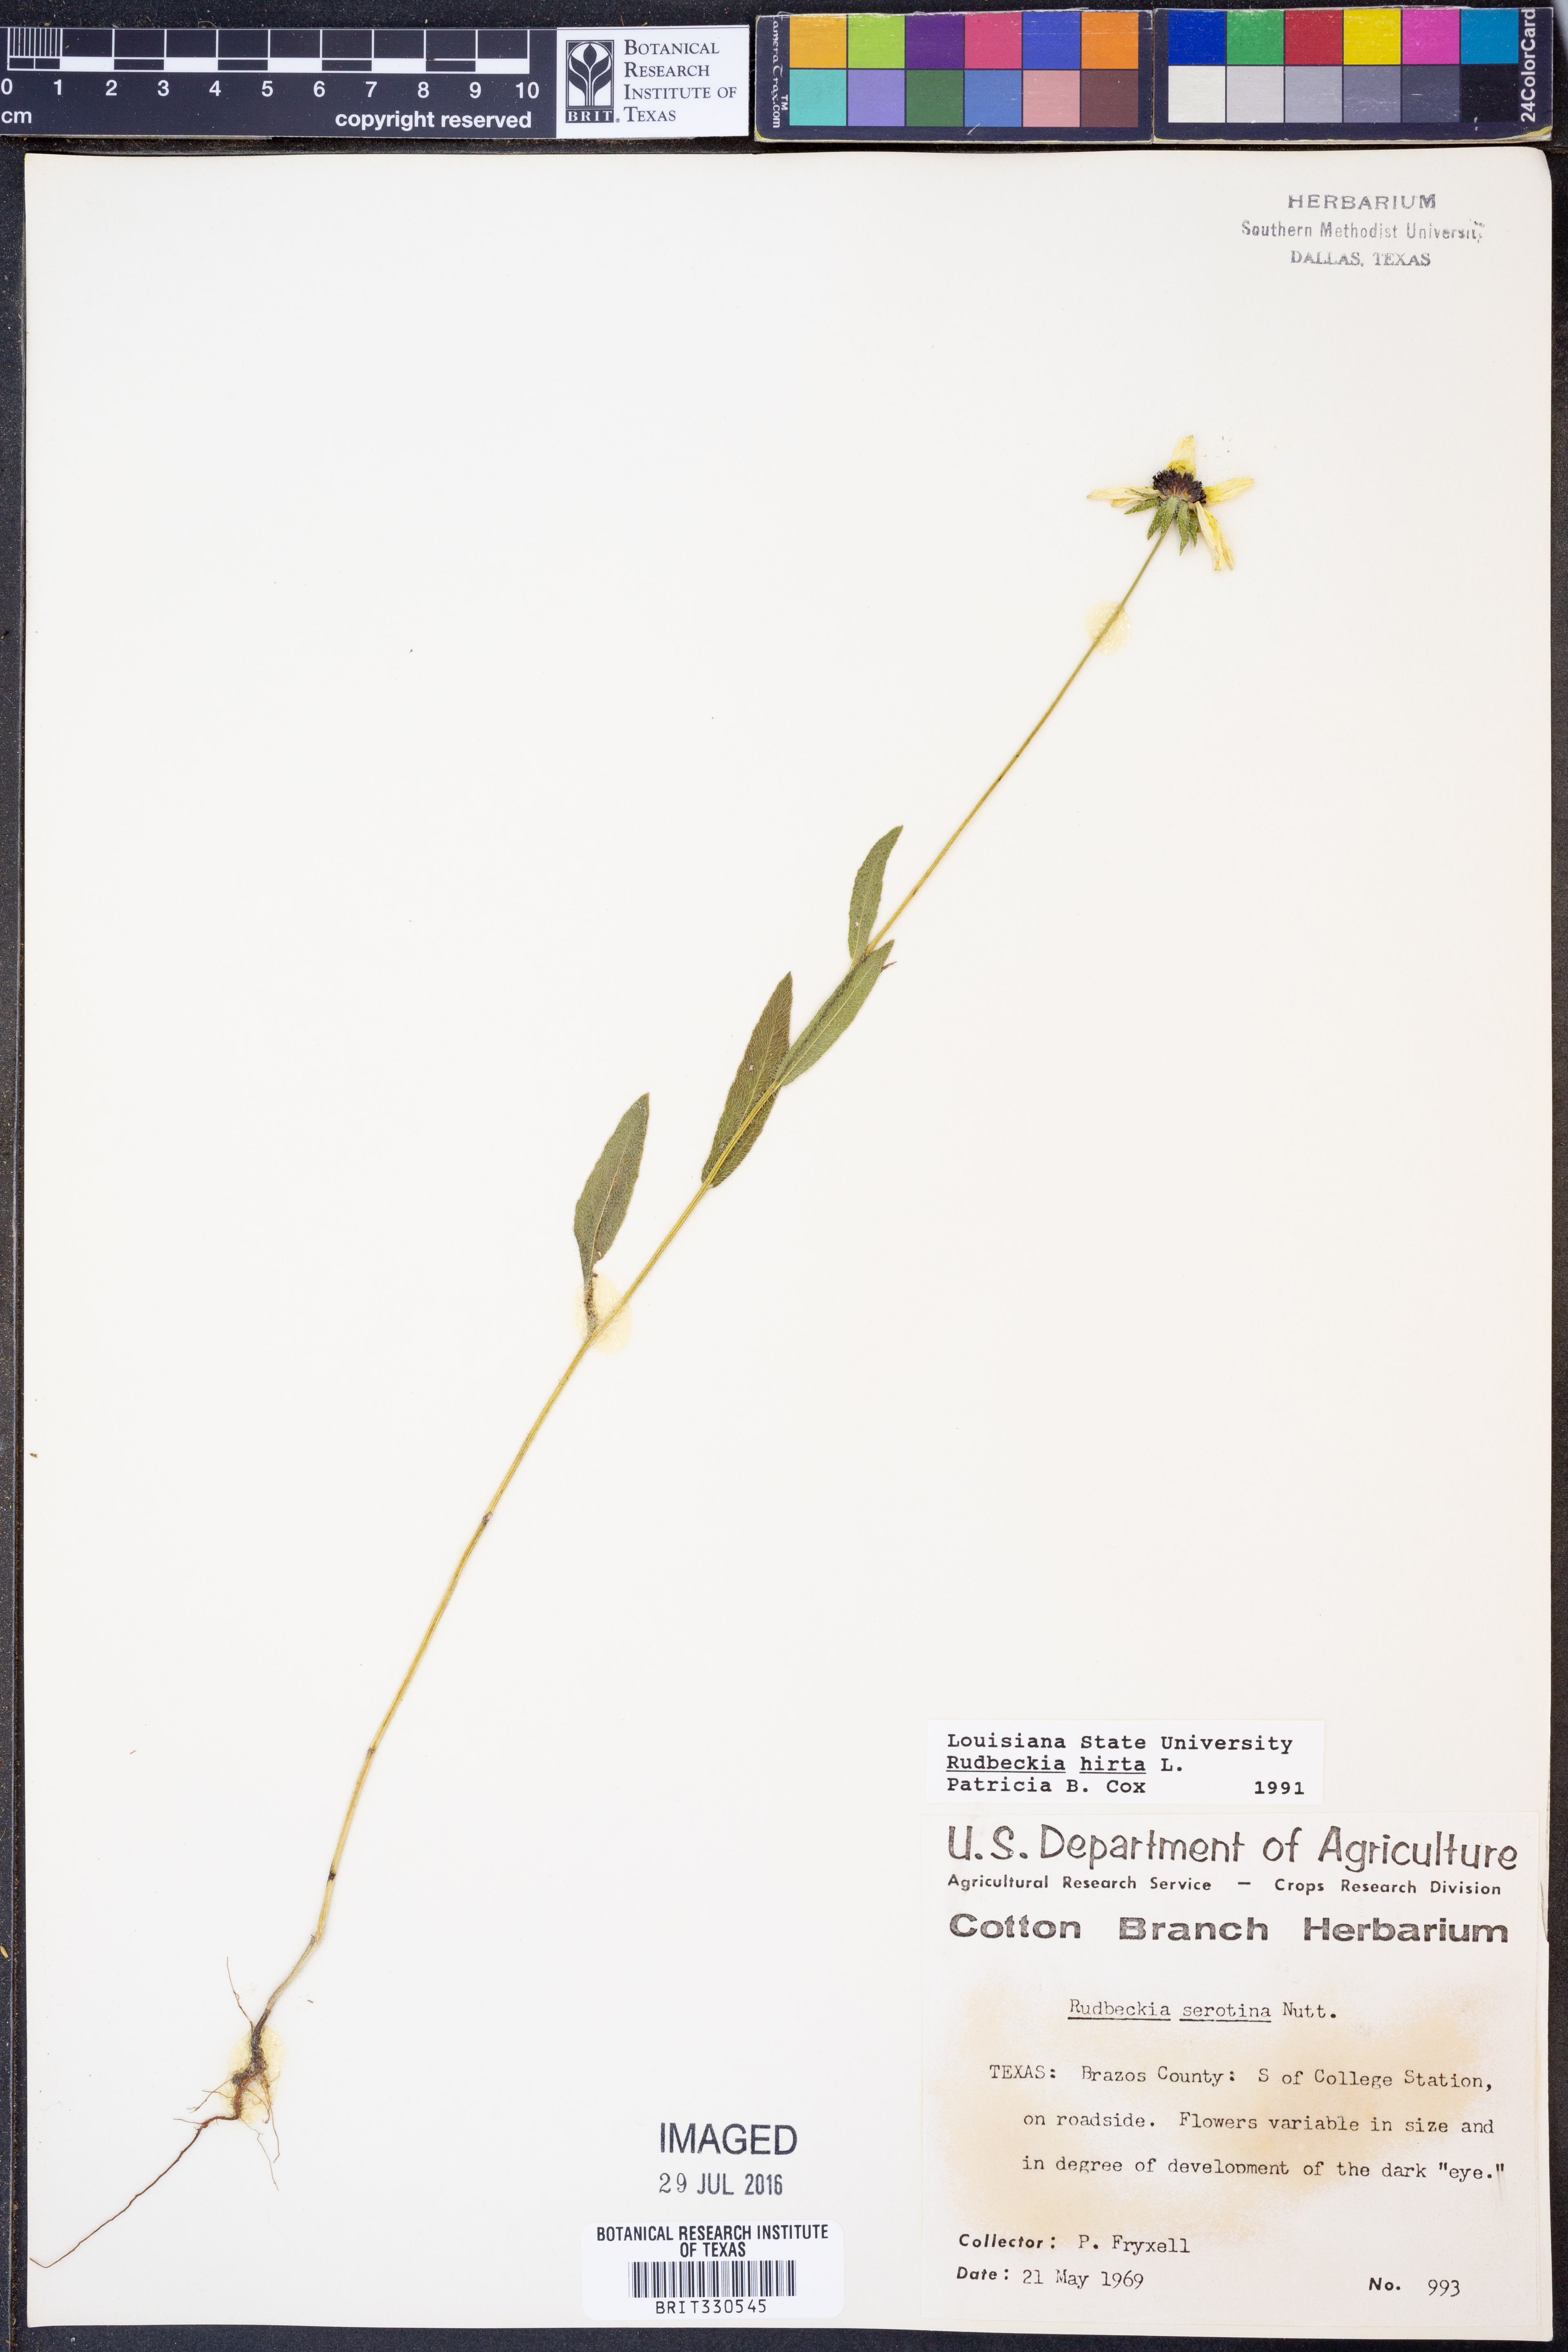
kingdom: Plantae
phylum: Tracheophyta
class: Magnoliopsida
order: Asterales
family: Asteraceae
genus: Rudbeckia
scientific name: Rudbeckia hirta
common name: Black-eyed-susan
